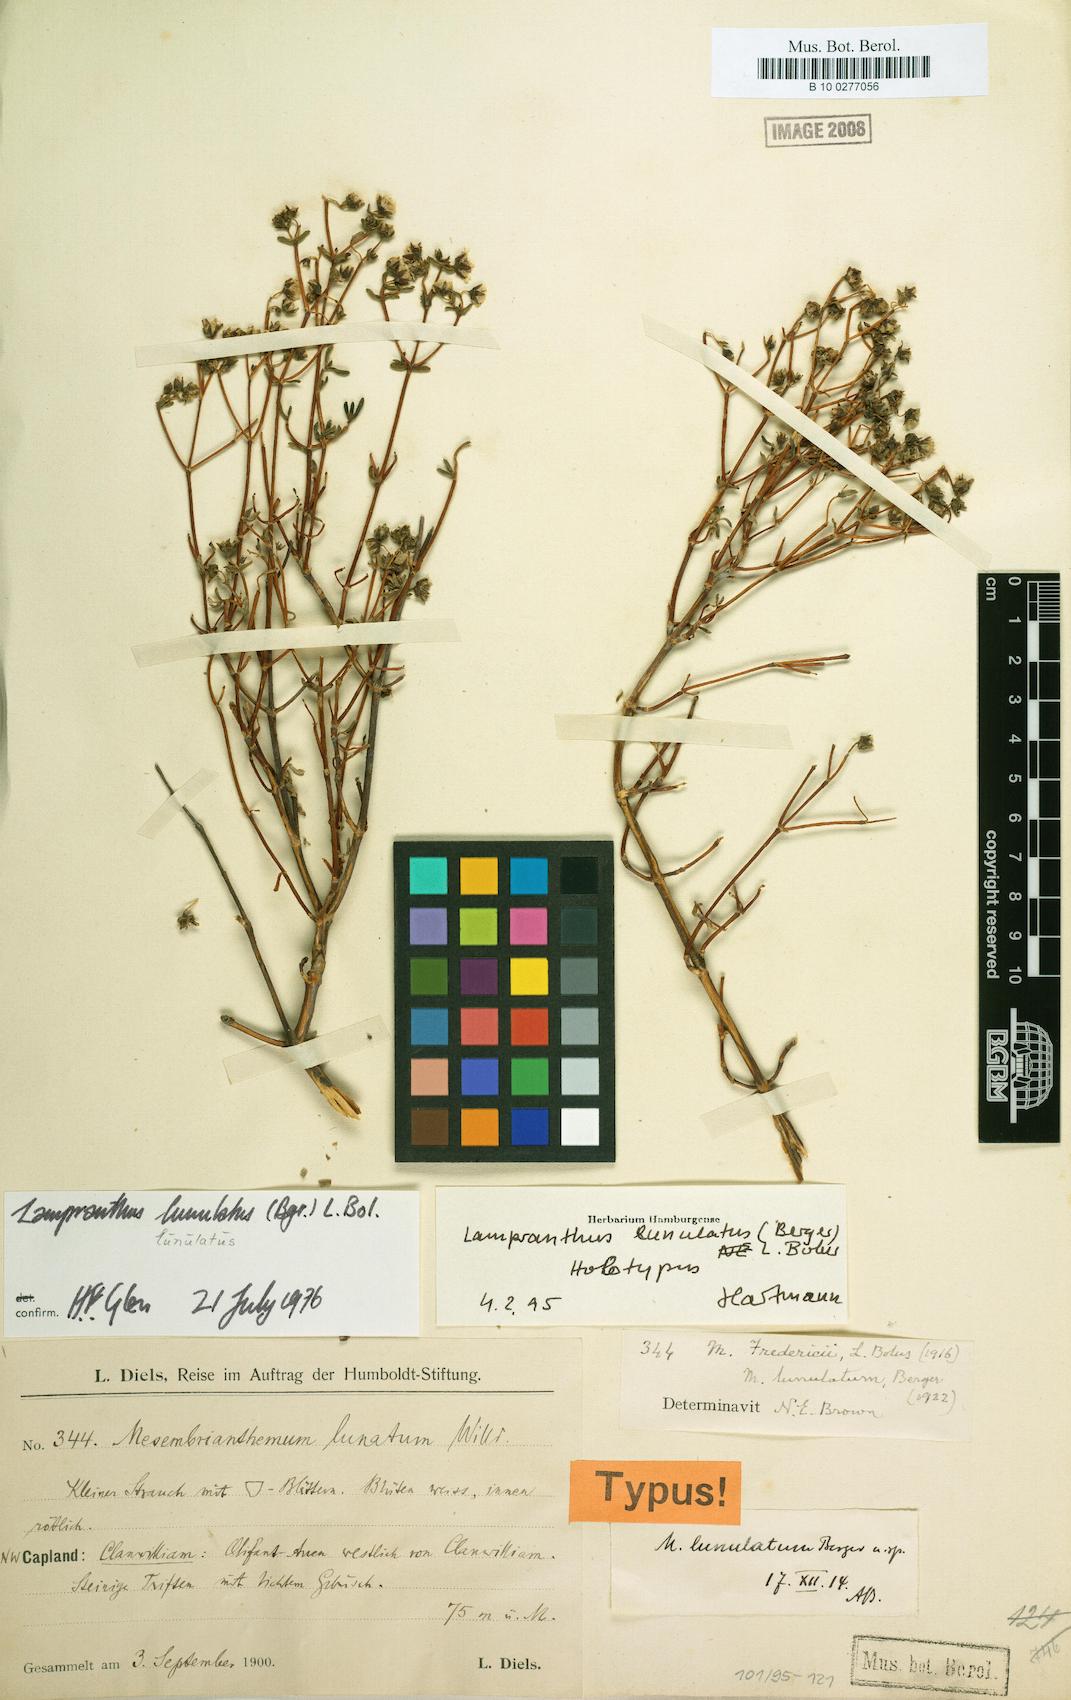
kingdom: Plantae
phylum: Tracheophyta
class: Magnoliopsida
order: Caryophyllales
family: Aizoaceae
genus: Ruschiella
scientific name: Ruschiella lunulata
